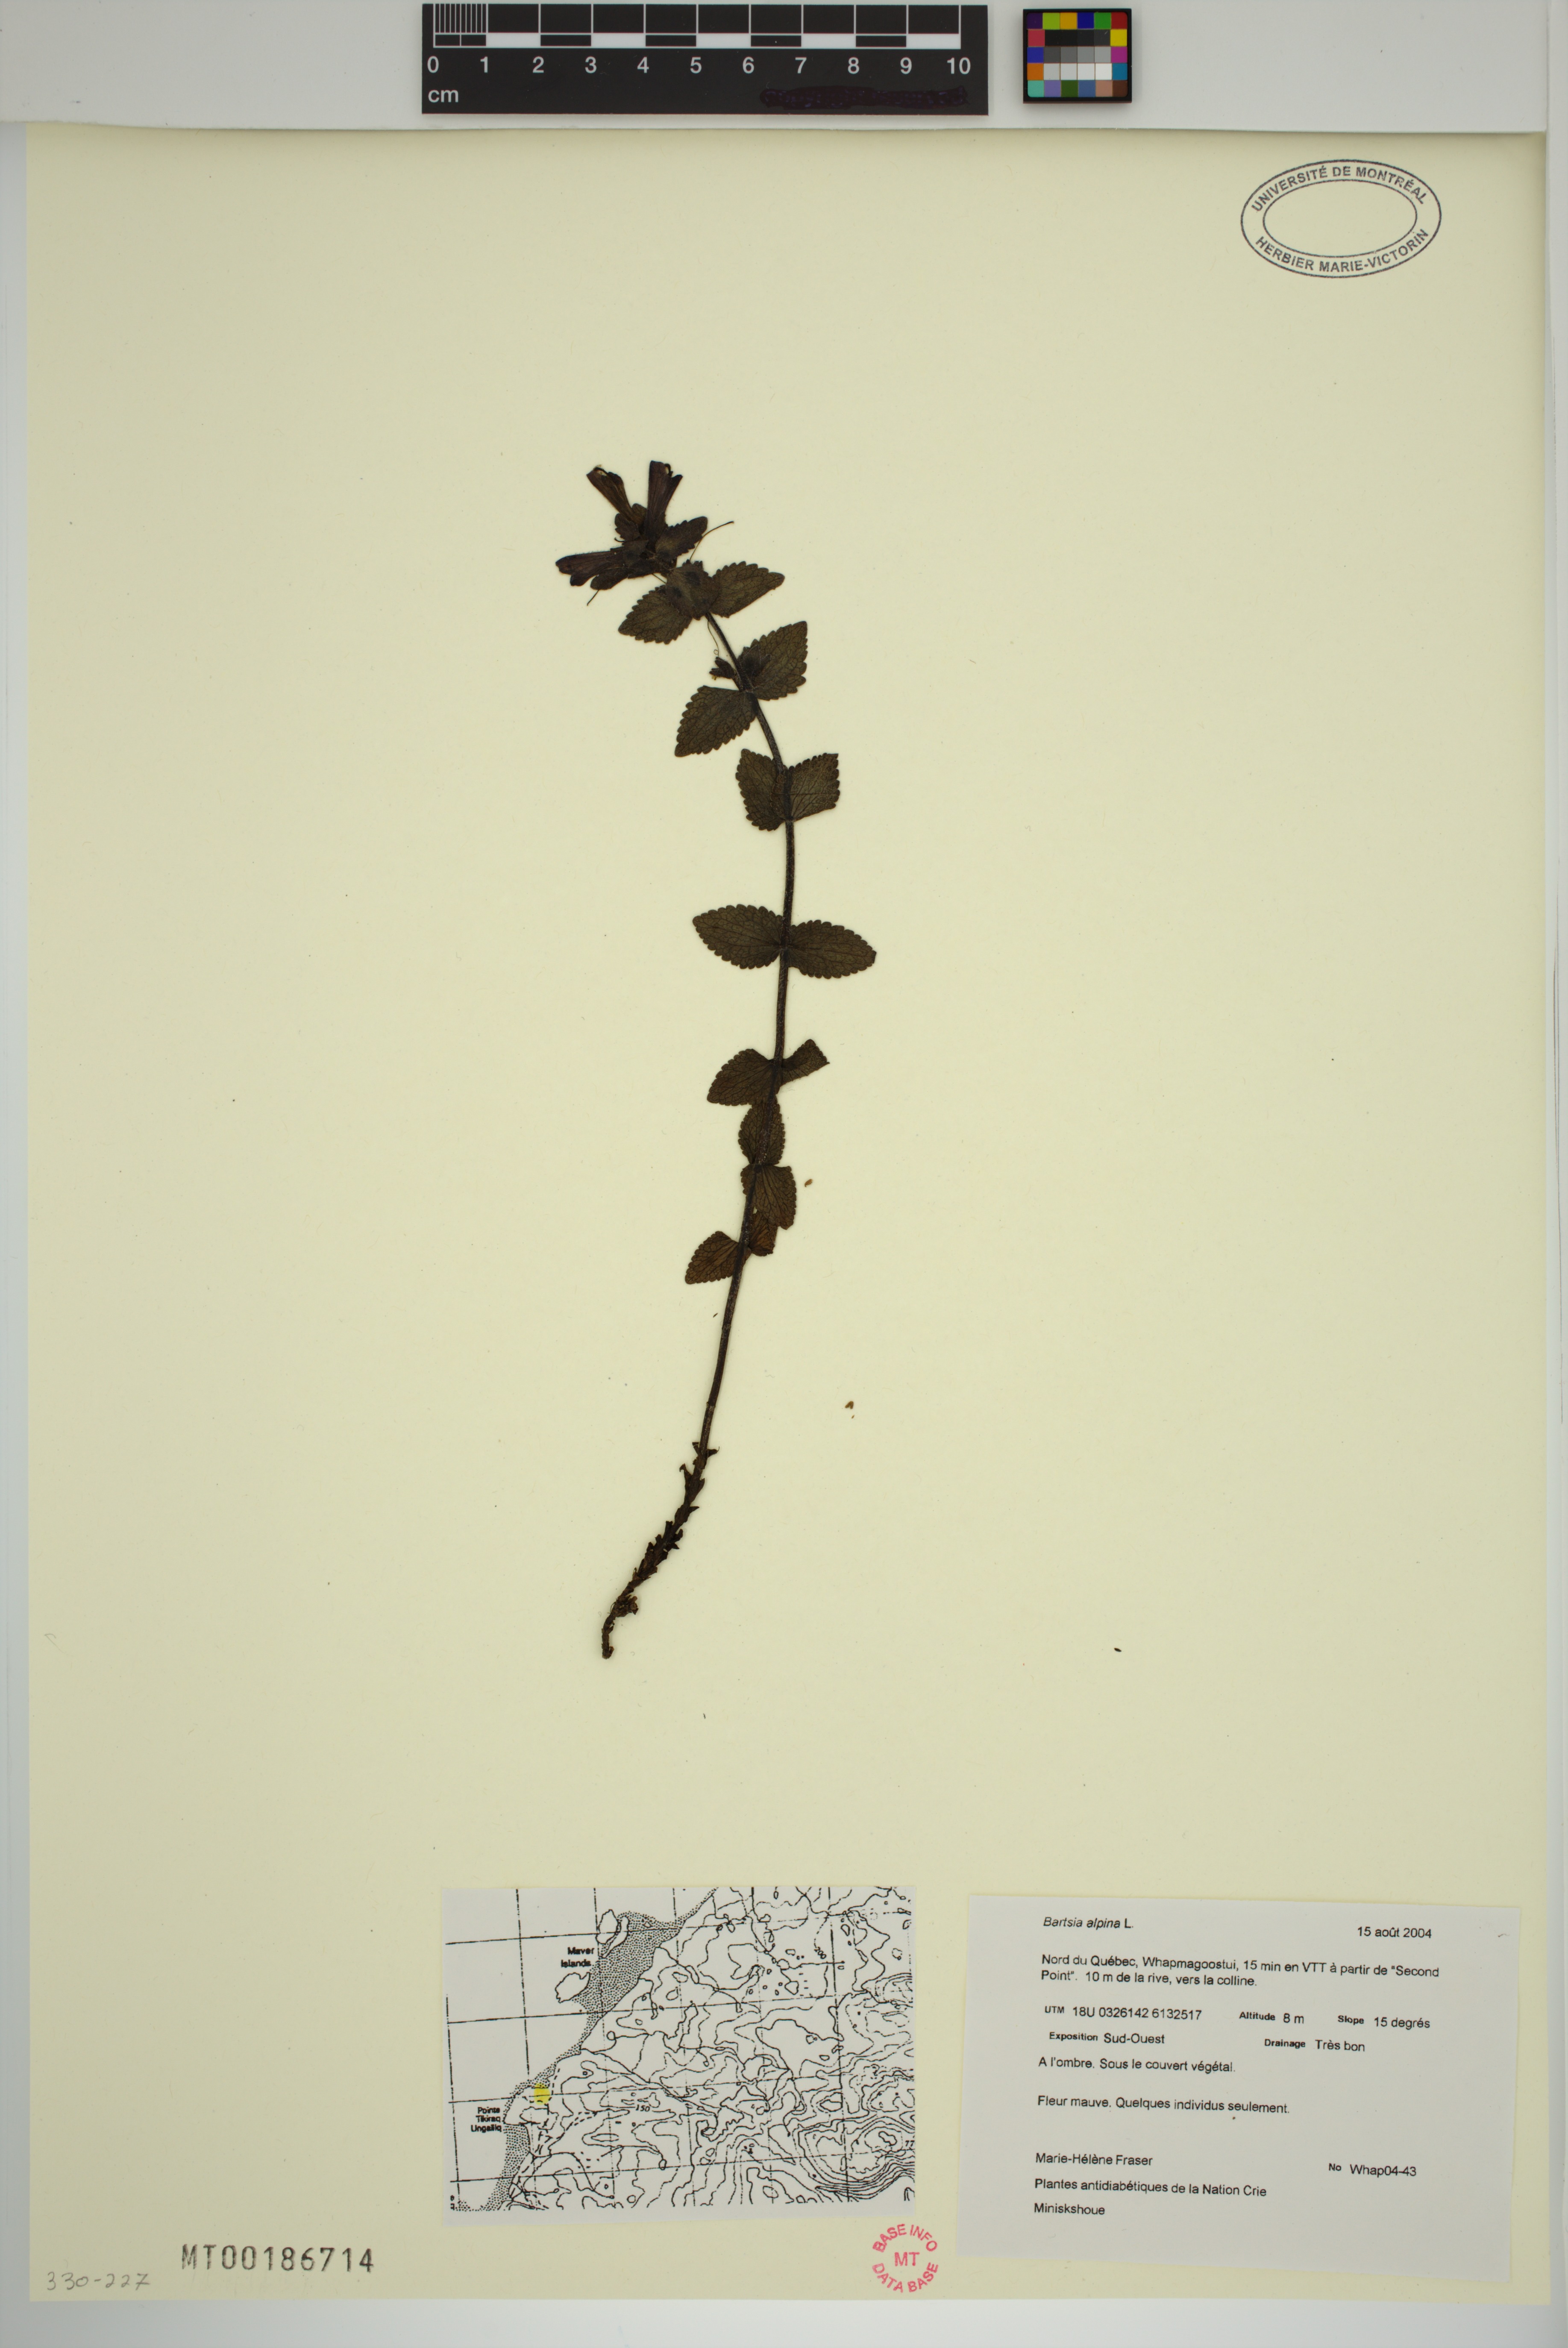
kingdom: Plantae
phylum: Tracheophyta
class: Magnoliopsida
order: Lamiales
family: Orobanchaceae
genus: Bartsia
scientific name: Bartsia alpina
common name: Alpine bartsia
